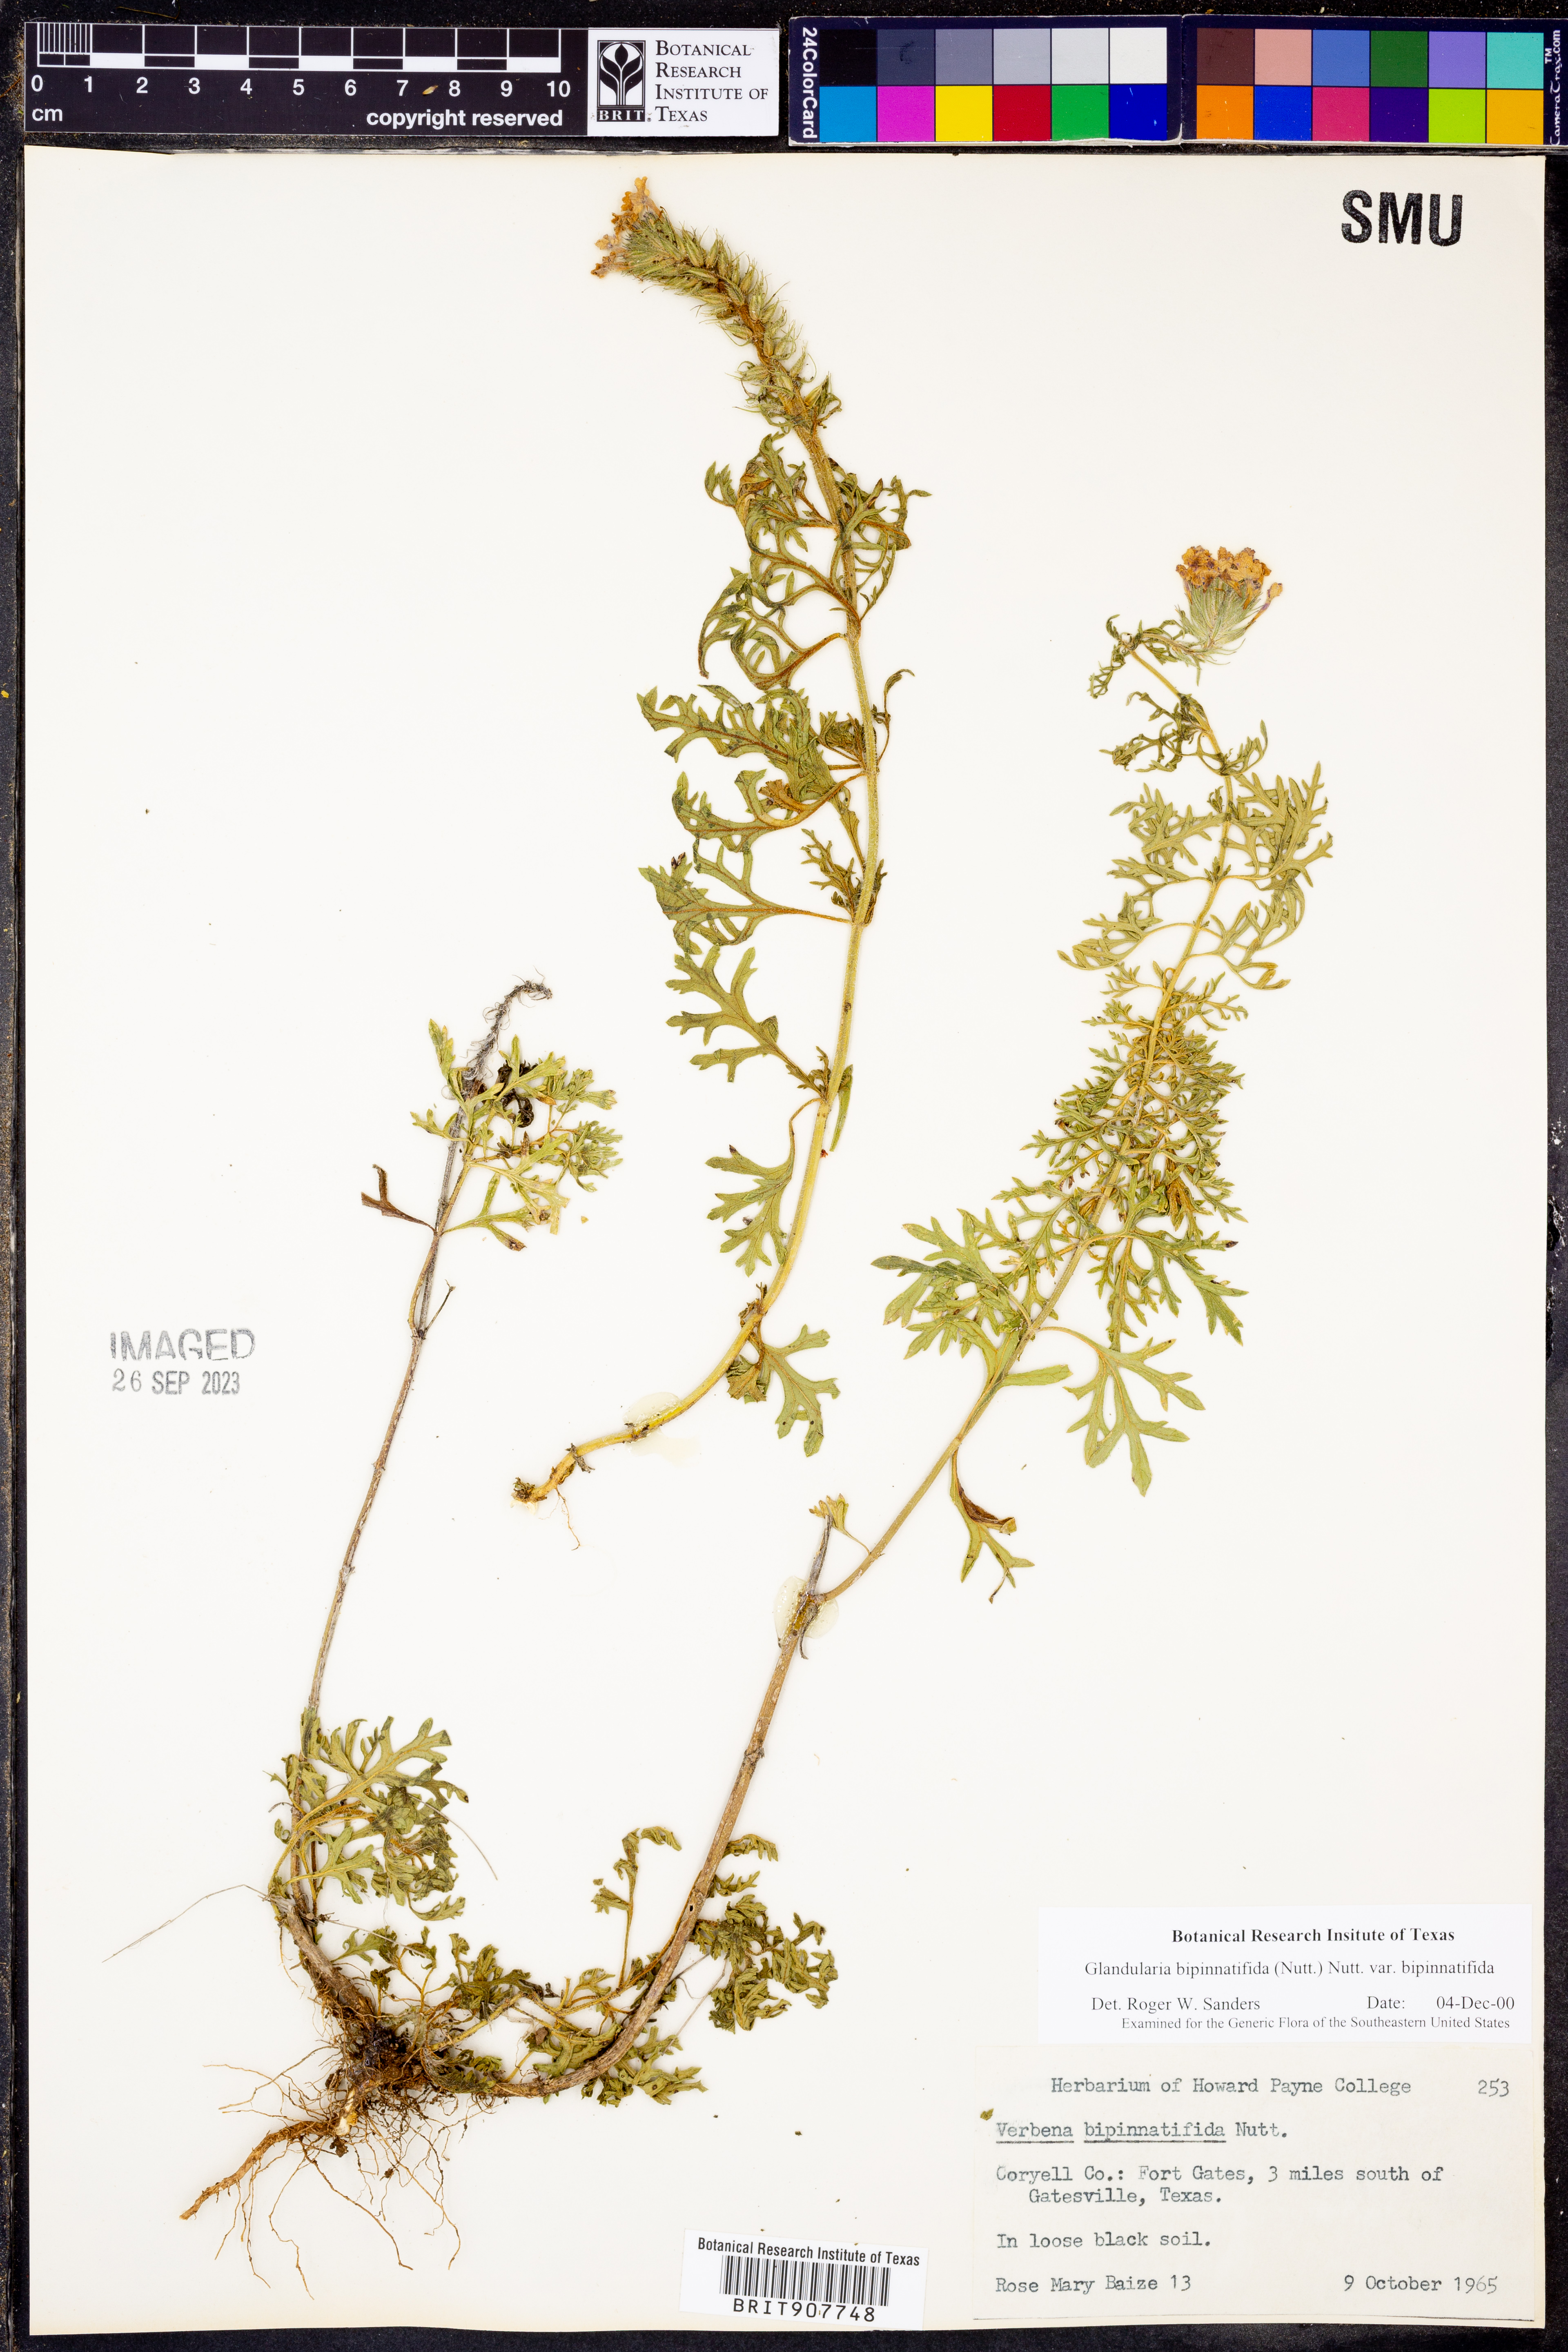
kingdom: Plantae
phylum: Tracheophyta
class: Magnoliopsida
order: Lamiales
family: Verbenaceae
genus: Verbena
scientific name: Verbena bipinnatifida
